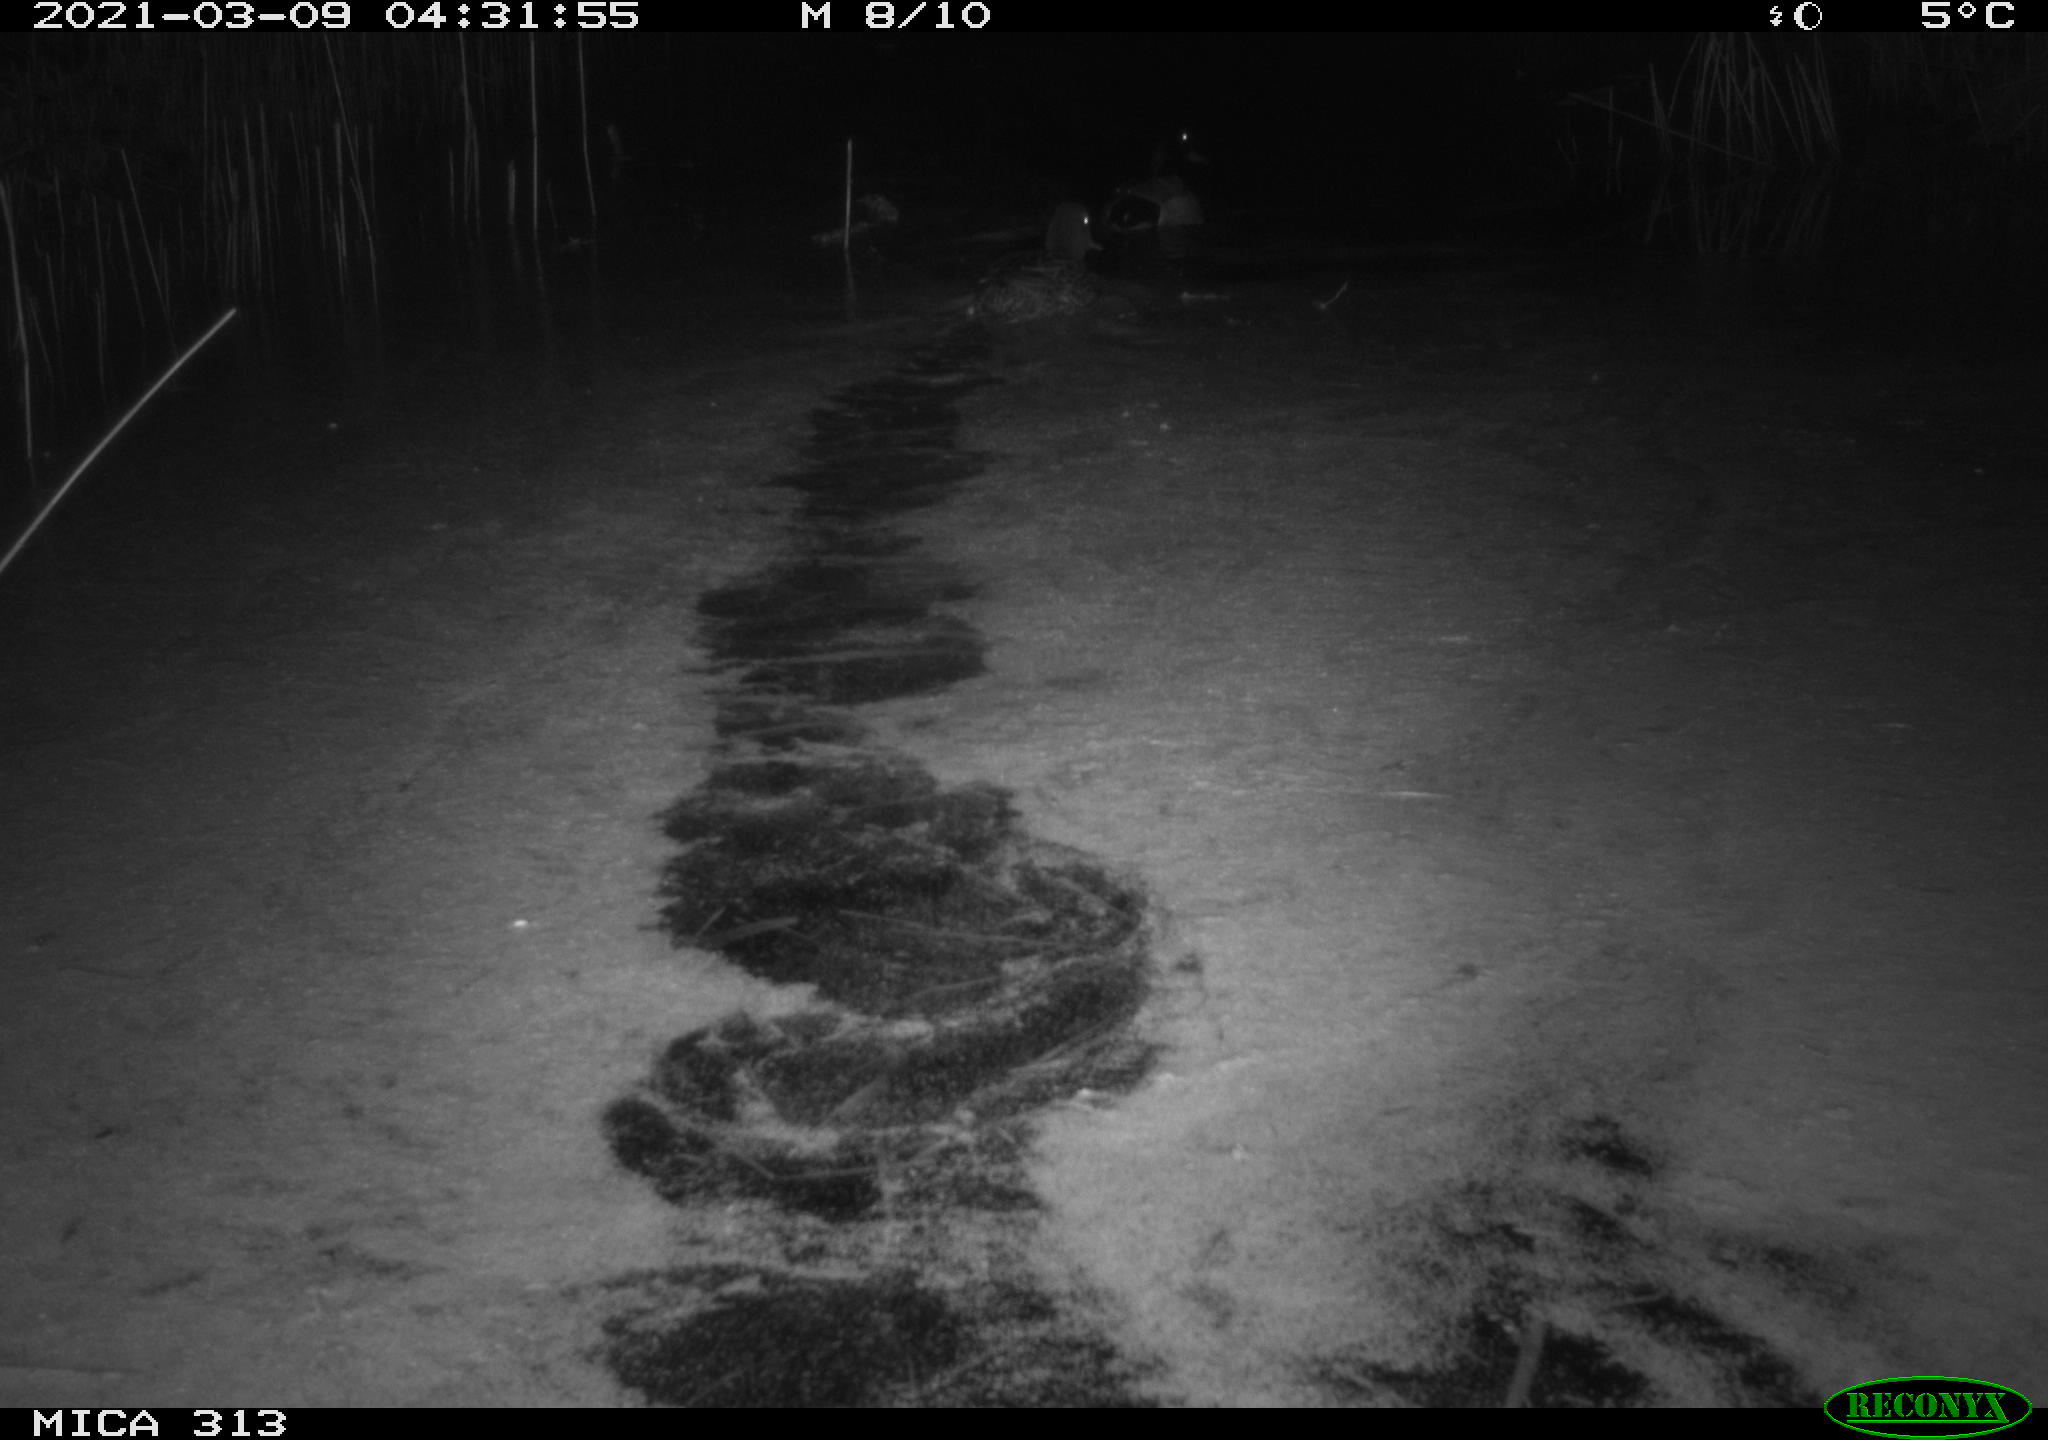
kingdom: Animalia
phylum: Chordata
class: Aves
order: Anseriformes
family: Anatidae
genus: Anas
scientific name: Anas platyrhynchos
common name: Mallard
